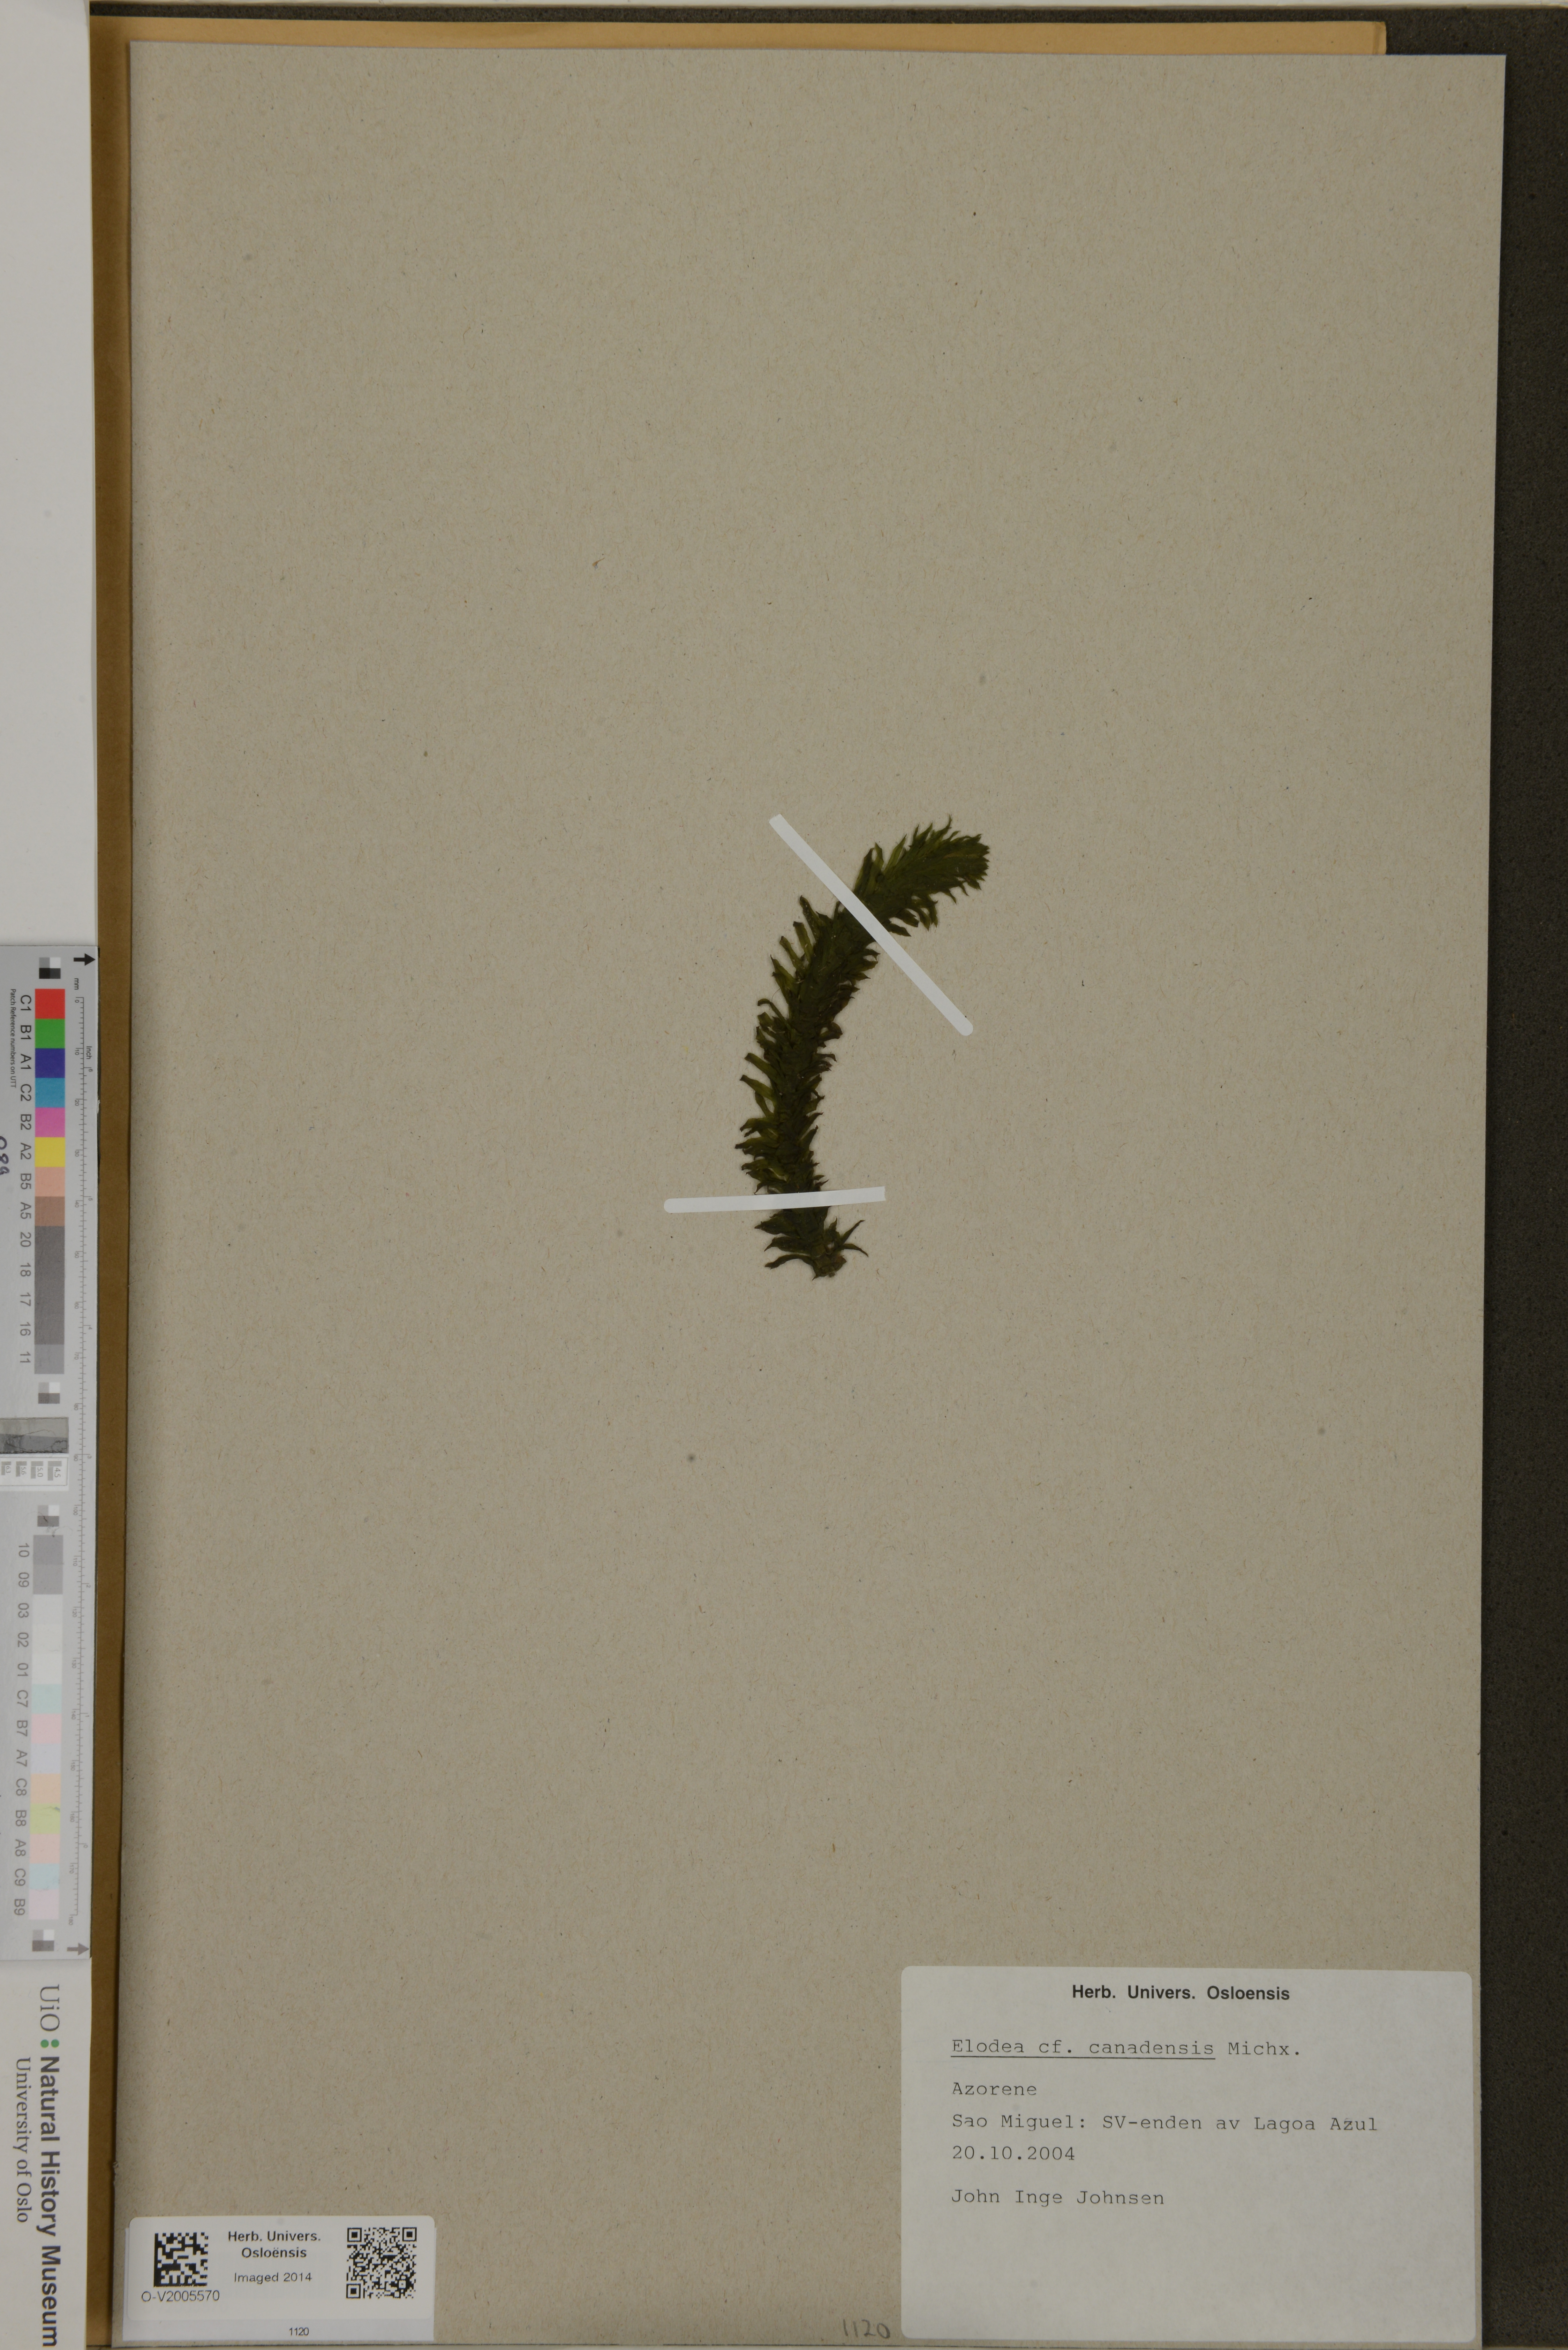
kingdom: Plantae
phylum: Tracheophyta
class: Liliopsida
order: Alismatales
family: Hydrocharitaceae
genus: Elodea
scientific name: Elodea canadensis
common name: Canadian waterweed
